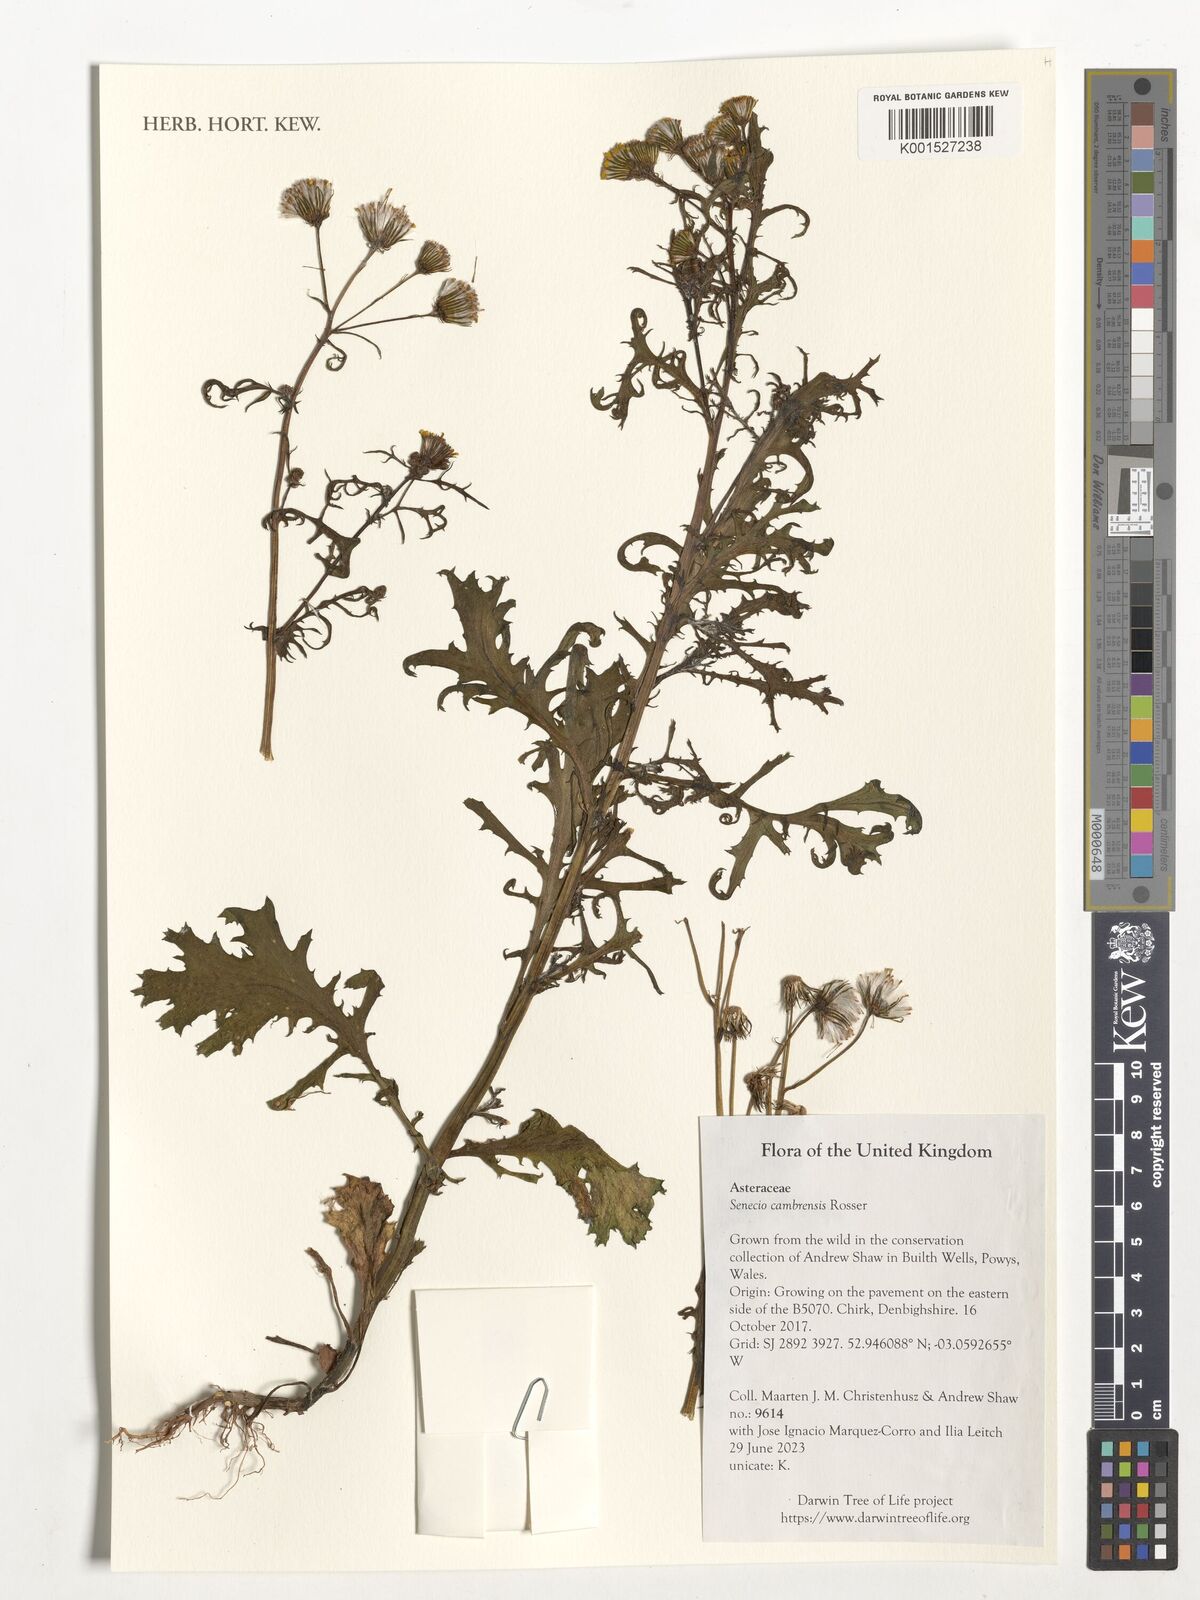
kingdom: Plantae
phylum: Tracheophyta
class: Magnoliopsida
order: Asterales
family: Asteraceae
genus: Senecio
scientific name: Senecio cambrensis
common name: Welsh groundsel
